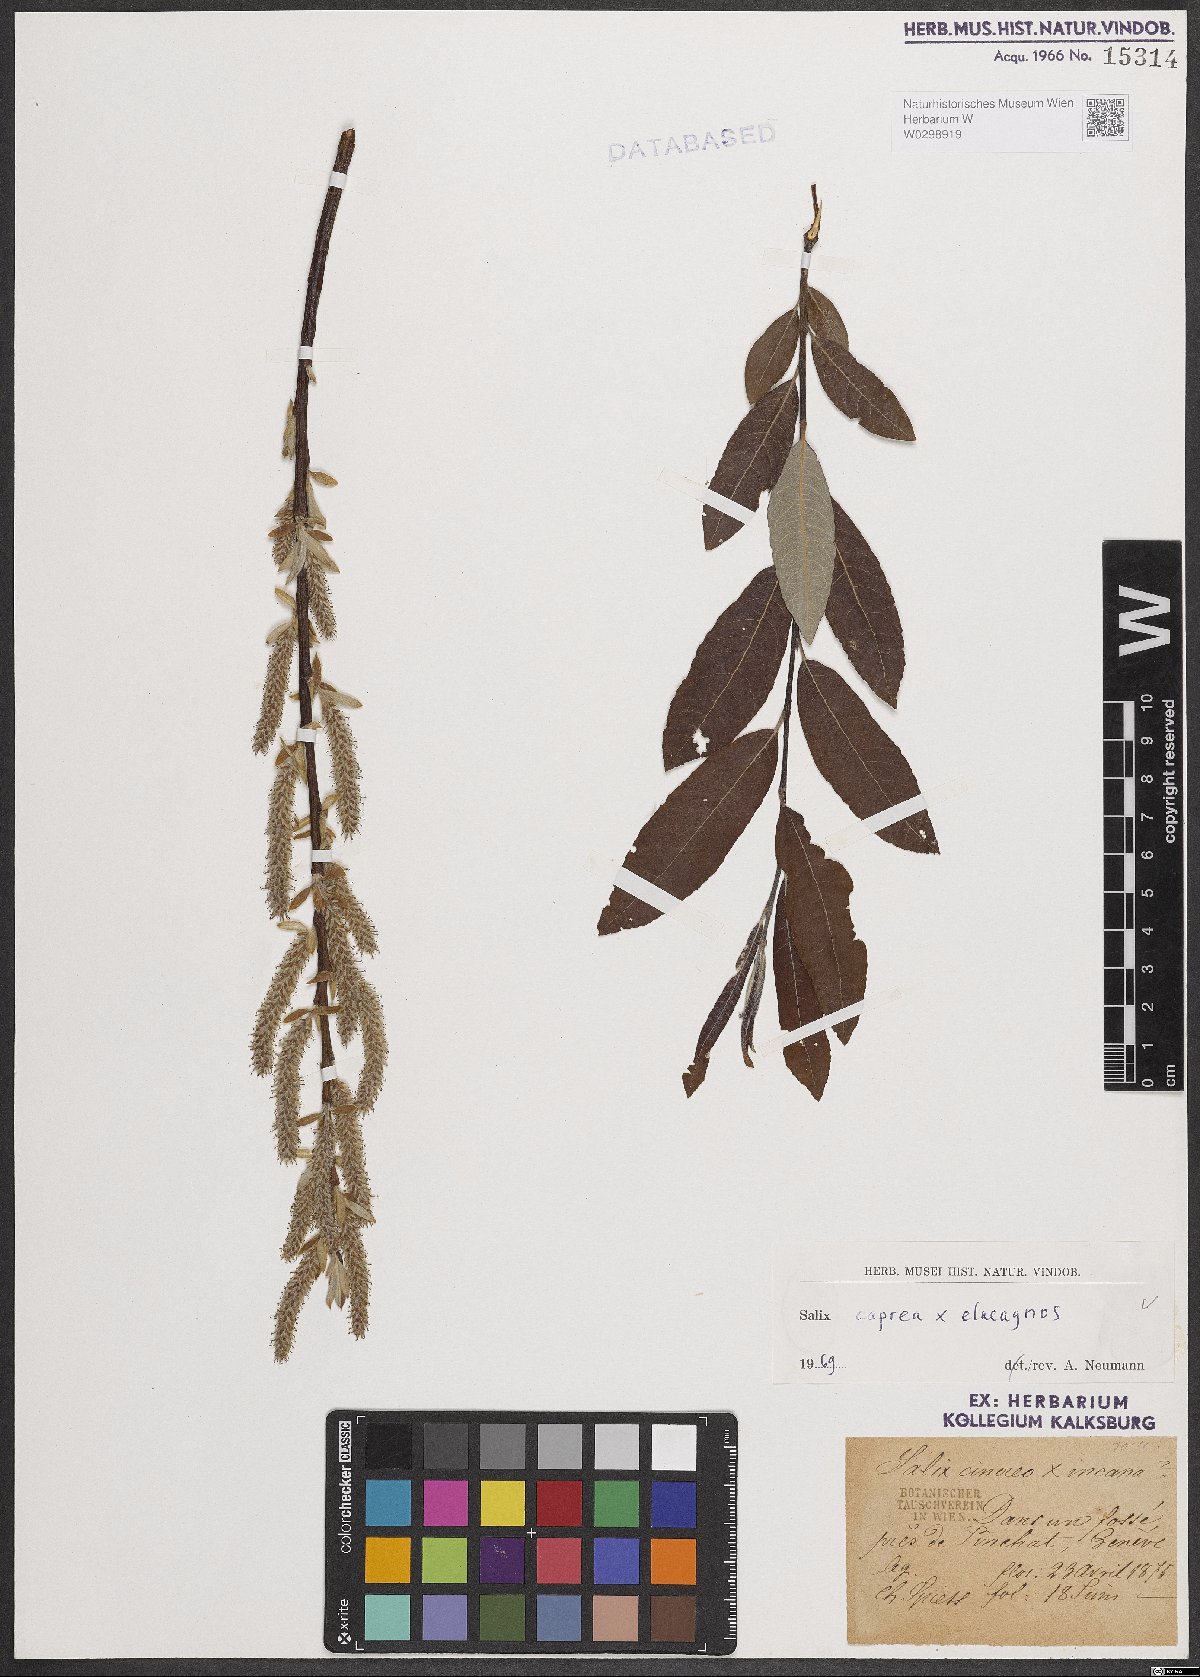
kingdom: Plantae
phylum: Tracheophyta
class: Magnoliopsida
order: Malpighiales
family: Salicaceae
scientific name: Salicaceae
